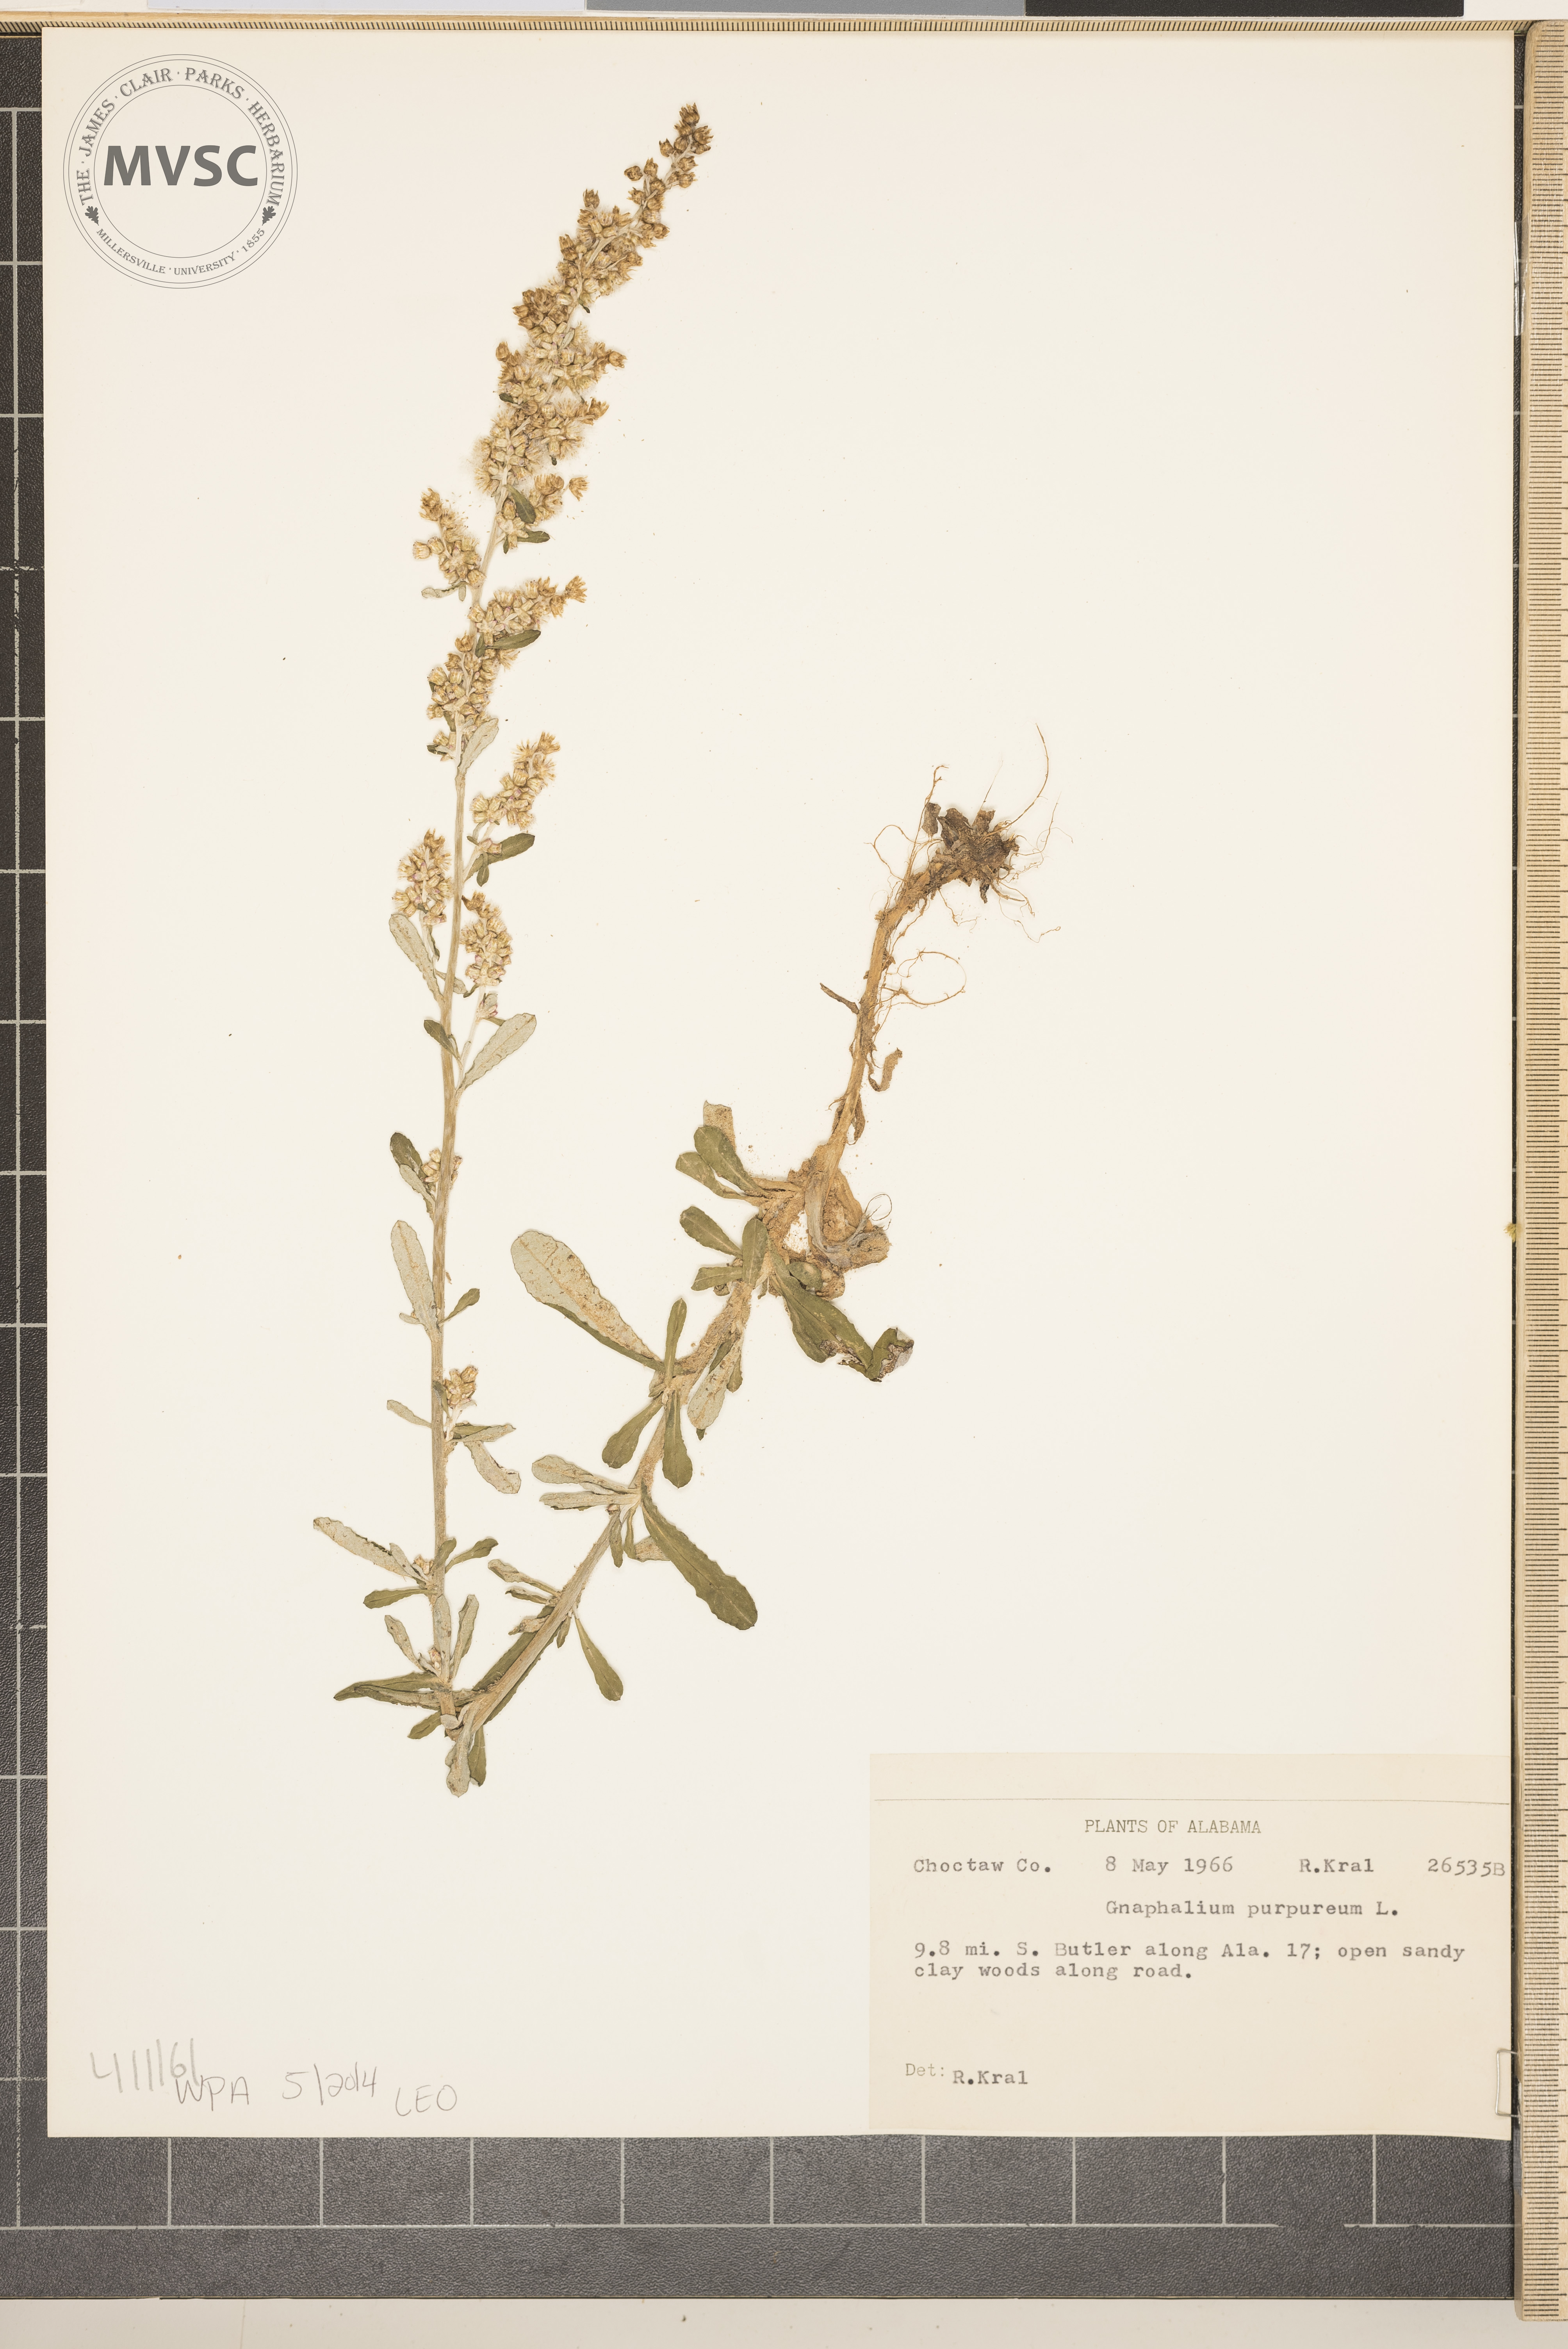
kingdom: Plantae
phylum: Tracheophyta
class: Magnoliopsida
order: Asterales
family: Asteraceae
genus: Gamochaeta
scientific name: Gamochaeta purpurea
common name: Purple cudweed
